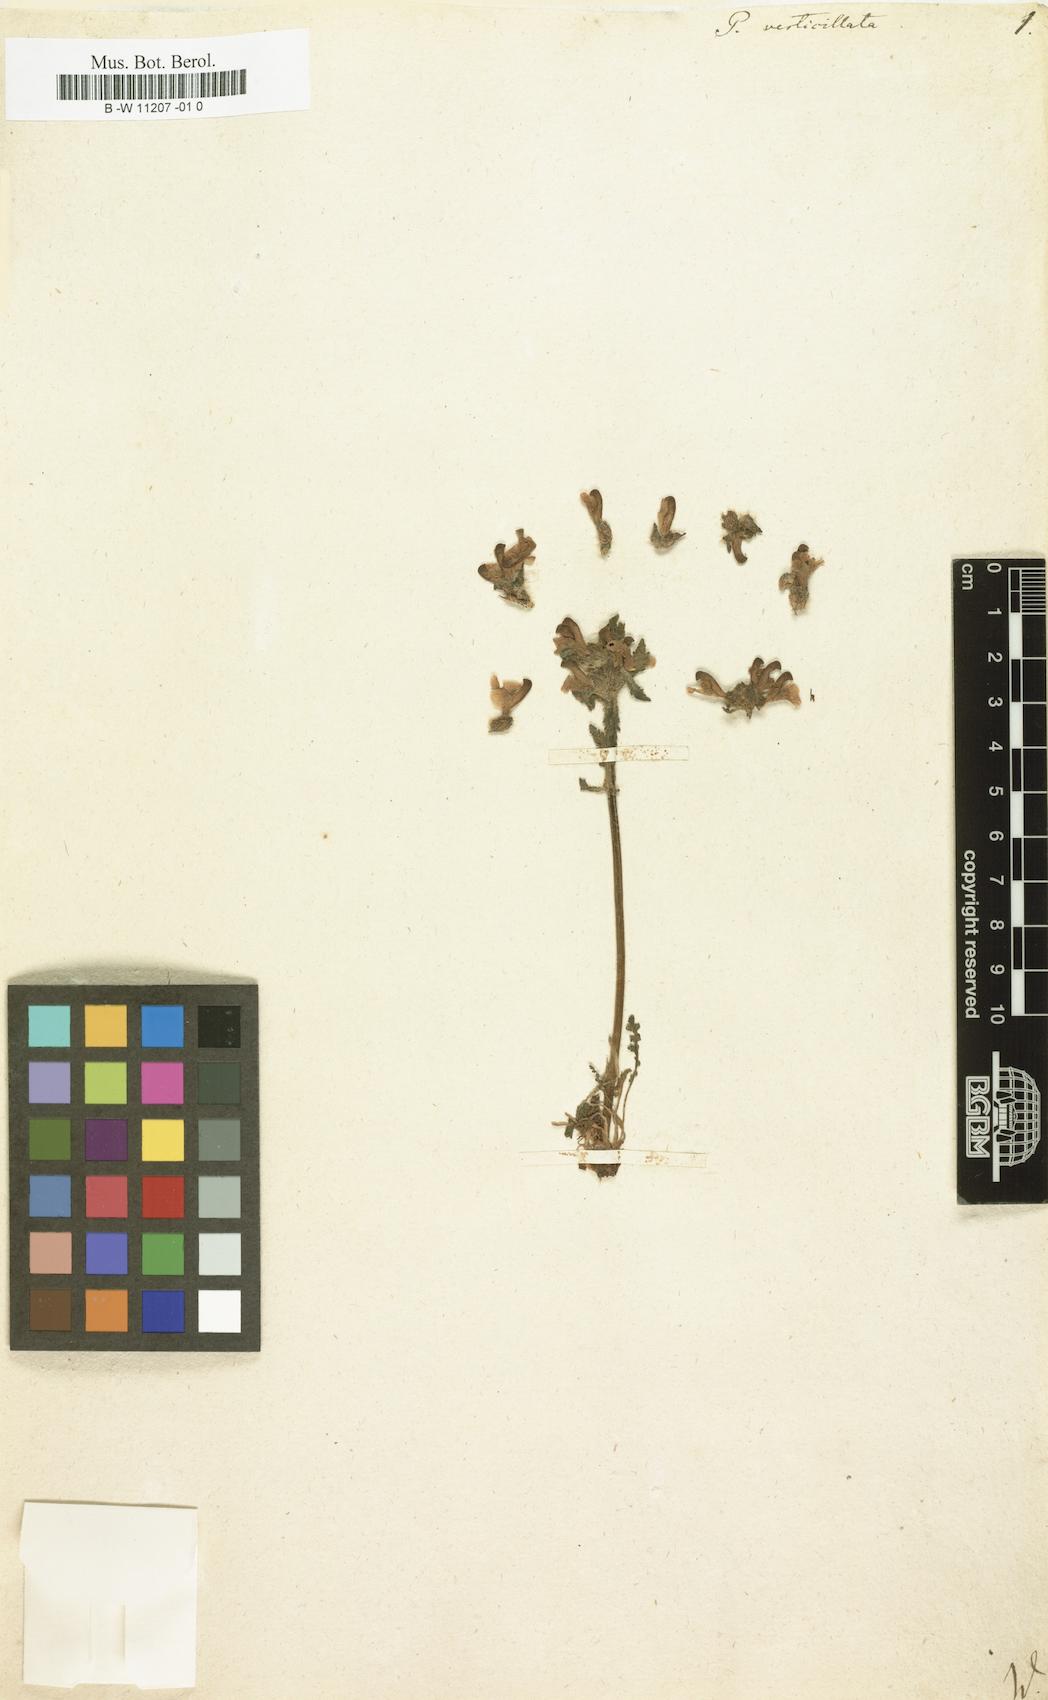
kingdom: Plantae
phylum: Tracheophyta
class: Magnoliopsida
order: Lamiales
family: Orobanchaceae
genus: Pedicularis
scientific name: Pedicularis verticillata
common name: Whorled lousewort
